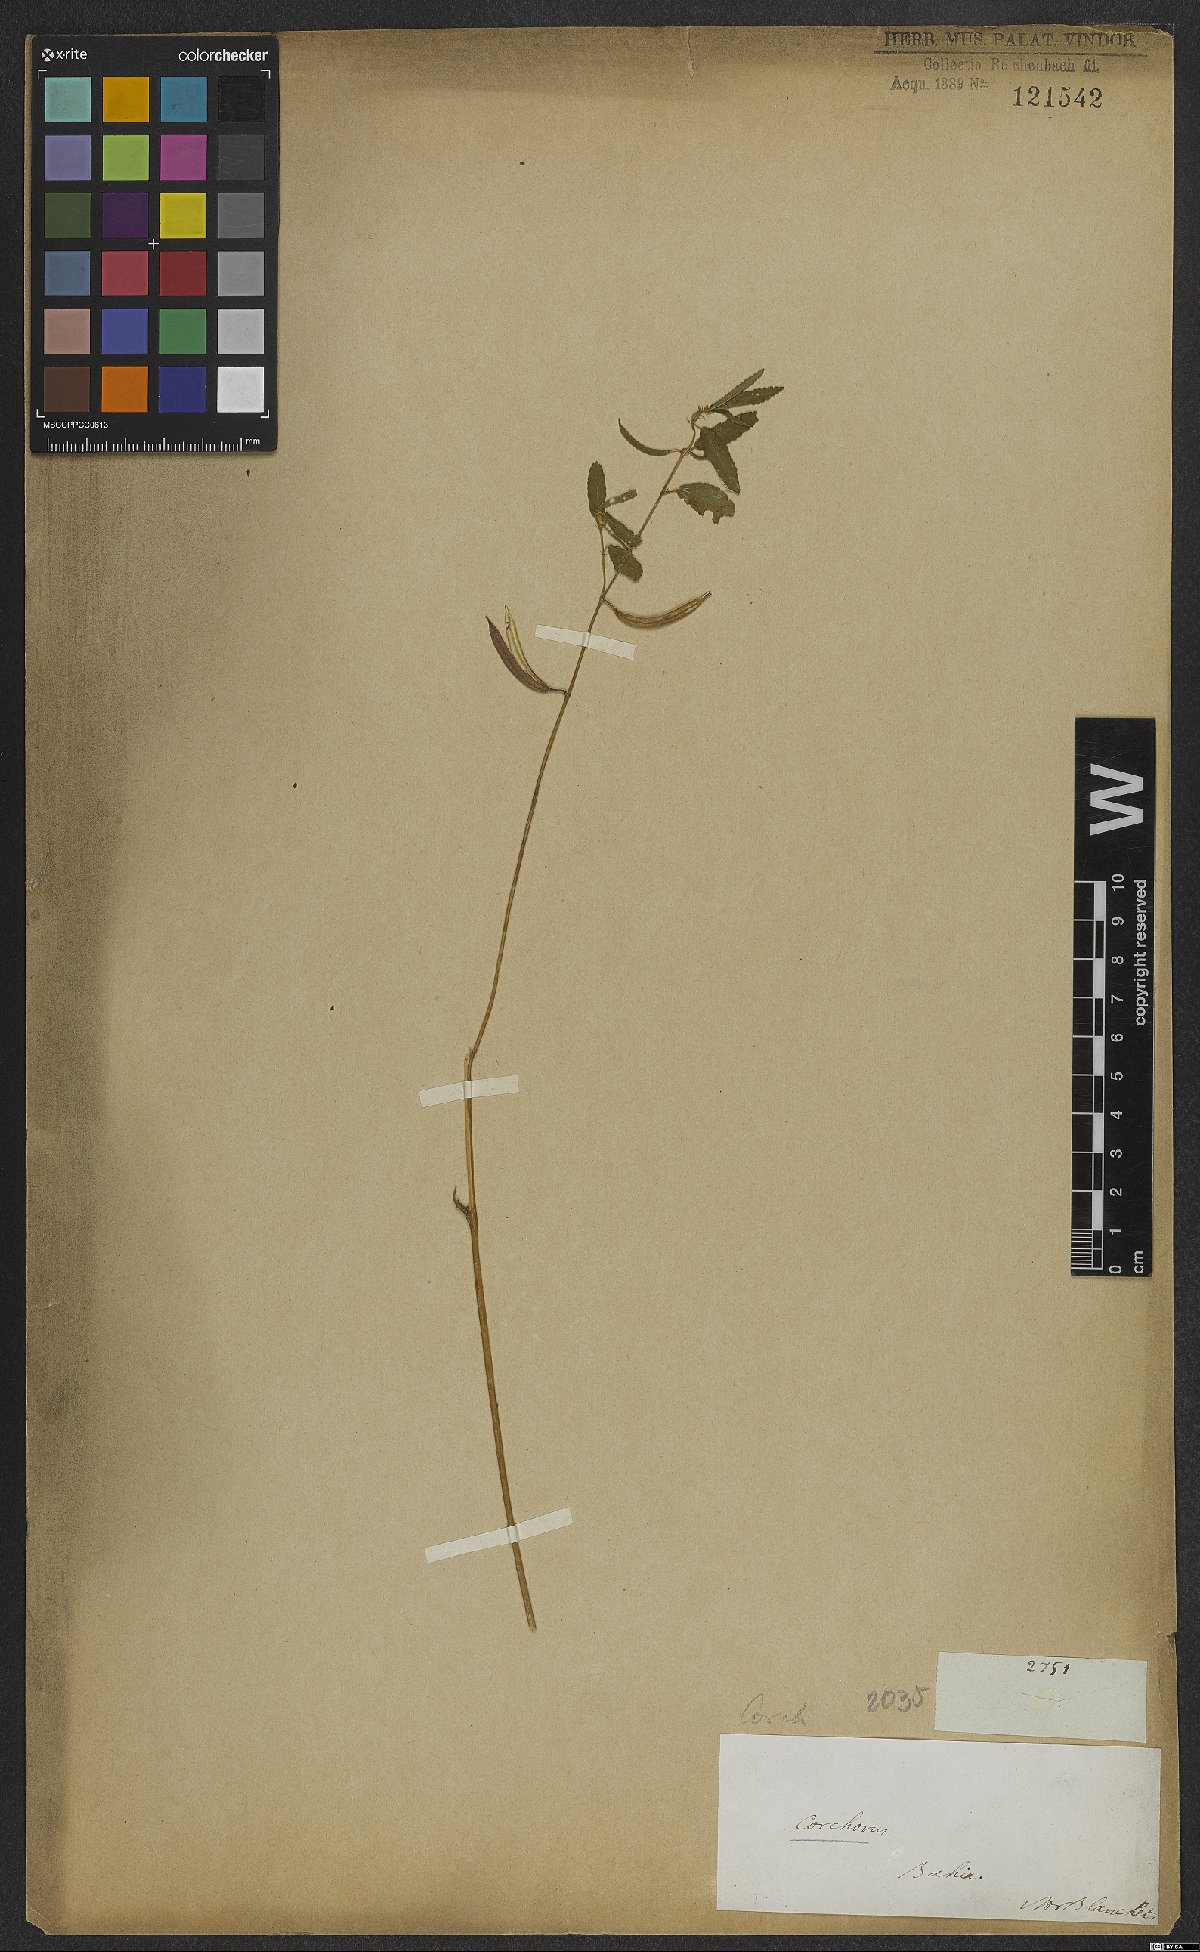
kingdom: Plantae
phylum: Tracheophyta
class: Magnoliopsida
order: Malvales
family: Malvaceae
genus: Corchorus
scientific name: Corchorus trilocularis
